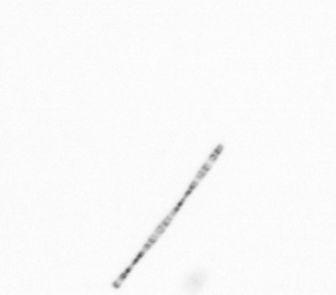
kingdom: Chromista
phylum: Ochrophyta
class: Bacillariophyceae
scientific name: Bacillariophyceae
